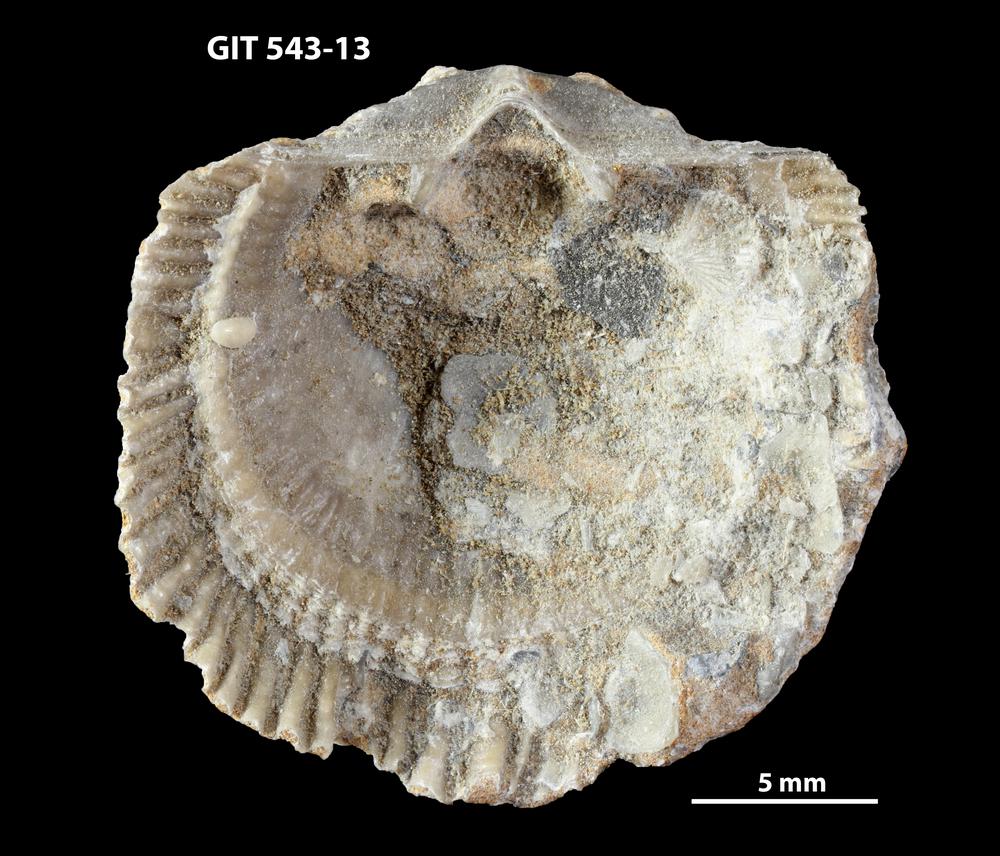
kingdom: Animalia
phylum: Brachiopoda
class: Rhynchonellata
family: Clitambonitidae
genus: Clitambonites
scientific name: Clitambonites
